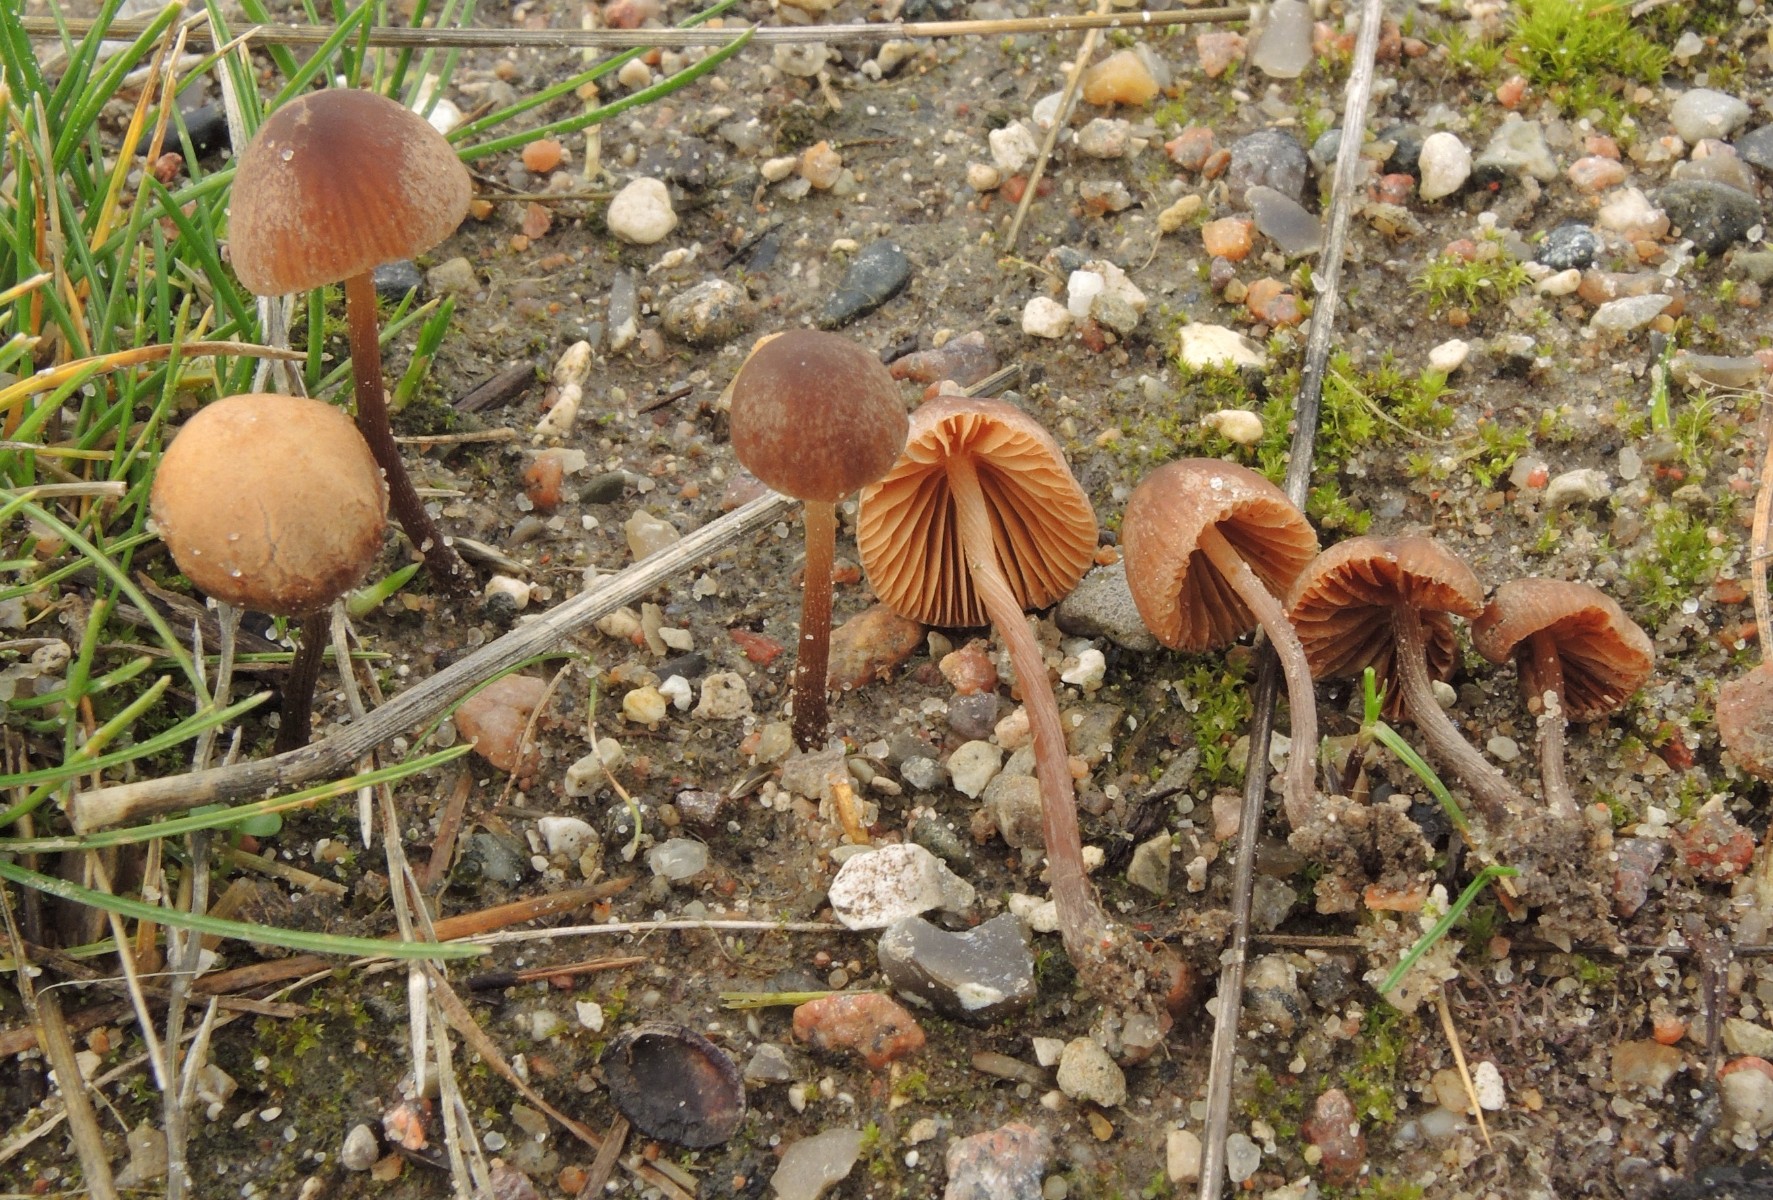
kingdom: Fungi
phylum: Basidiomycota
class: Agaricomycetes
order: Agaricales
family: Bolbitiaceae
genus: Conocybe
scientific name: Conocybe moseri
